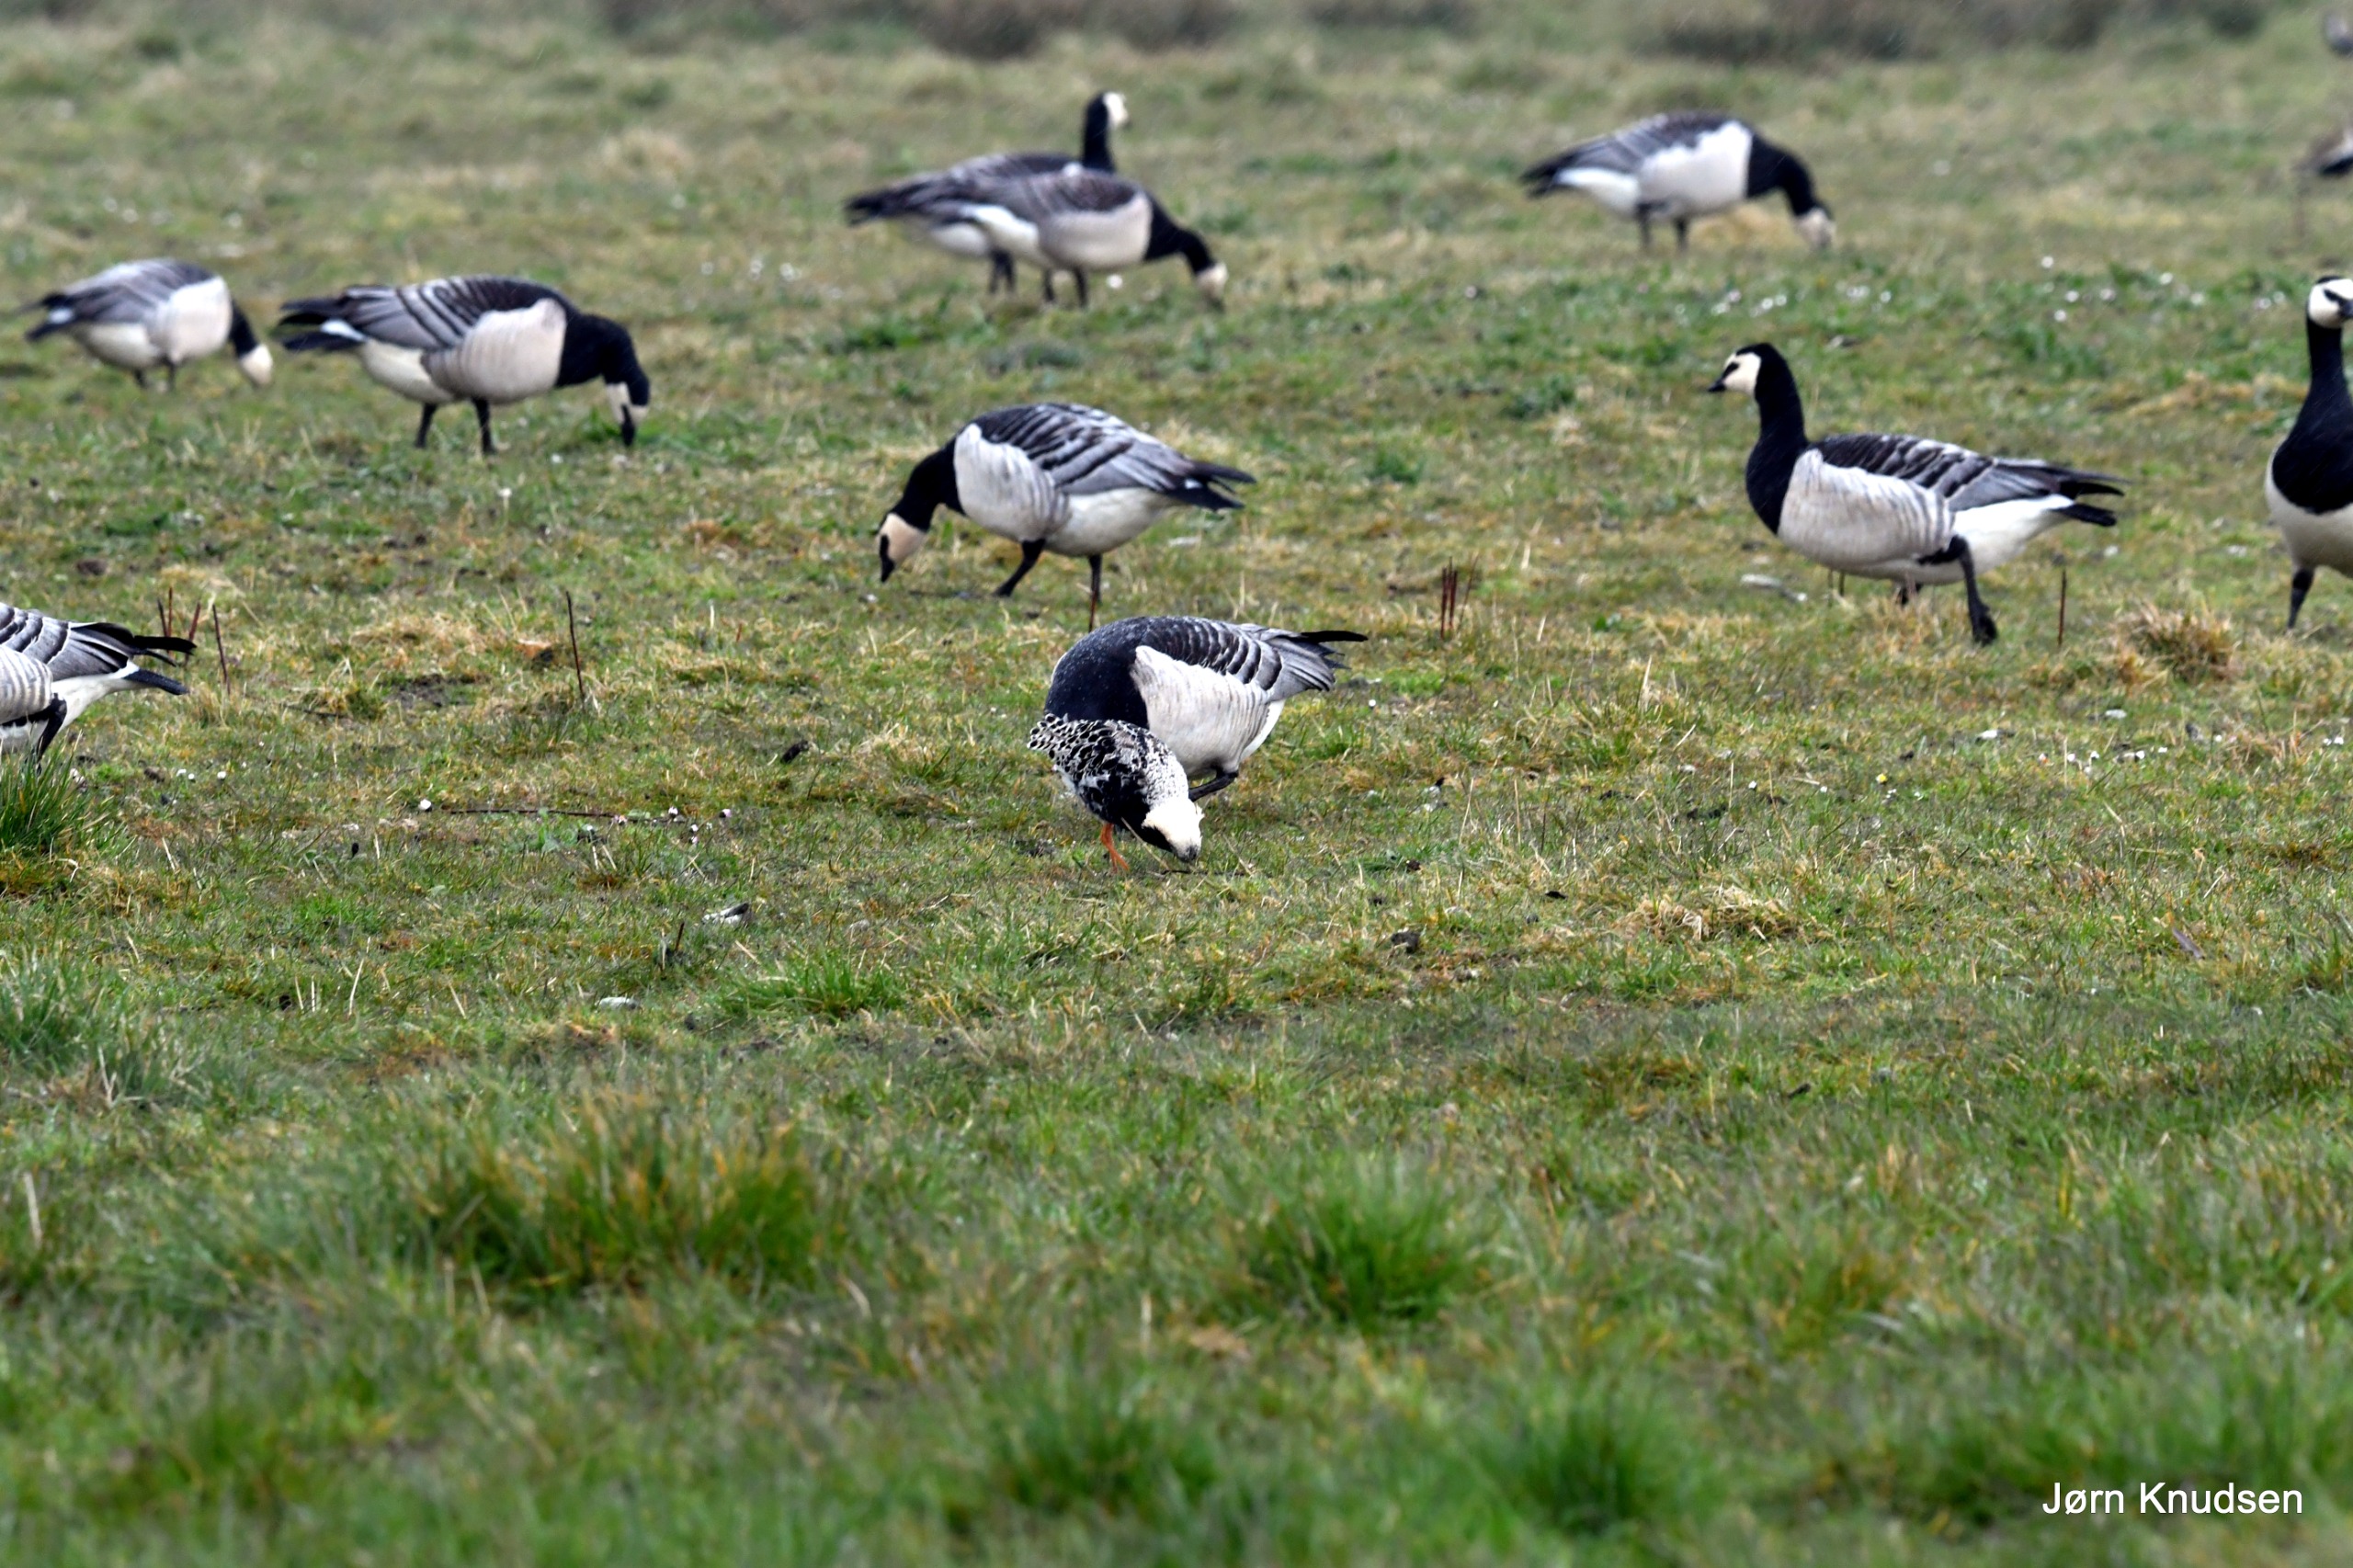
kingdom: Animalia
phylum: Chordata
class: Aves
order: Anseriformes
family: Anatidae
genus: Branta
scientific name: Branta leucopsis
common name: Bramgås
